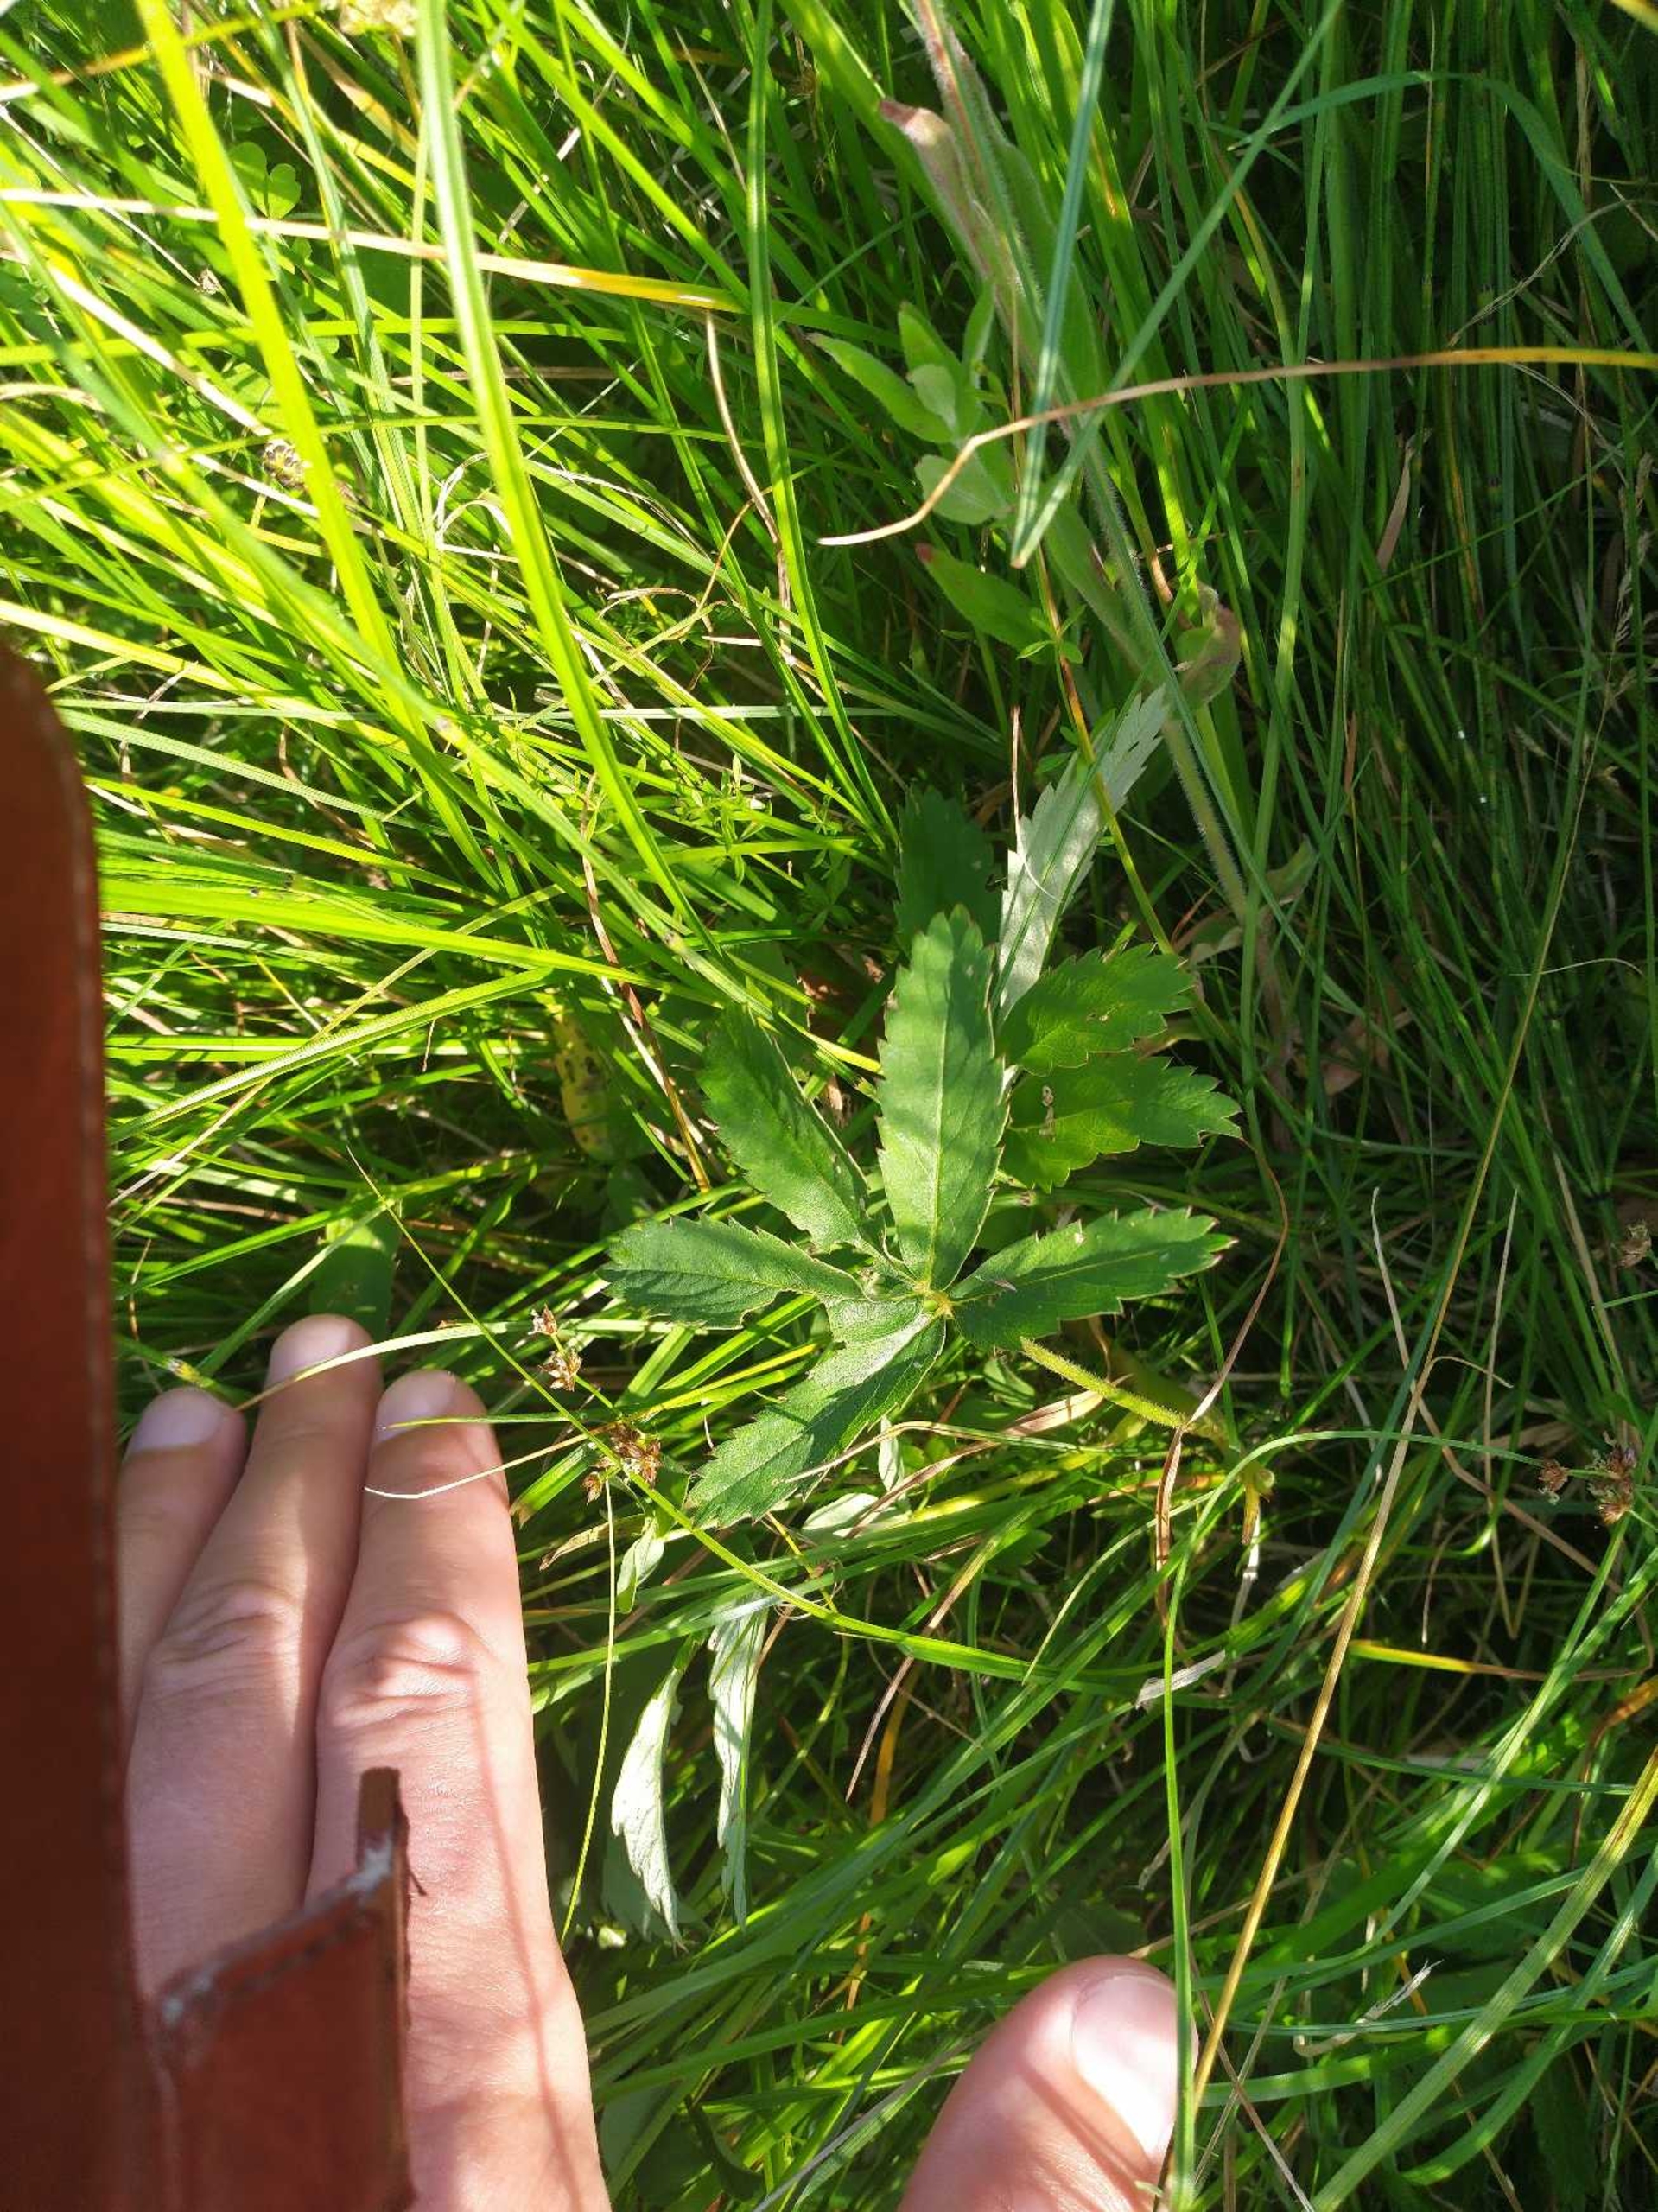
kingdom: Plantae
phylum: Tracheophyta
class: Magnoliopsida
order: Rosales
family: Rosaceae
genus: Comarum
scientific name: Comarum palustre
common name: Kragefod
